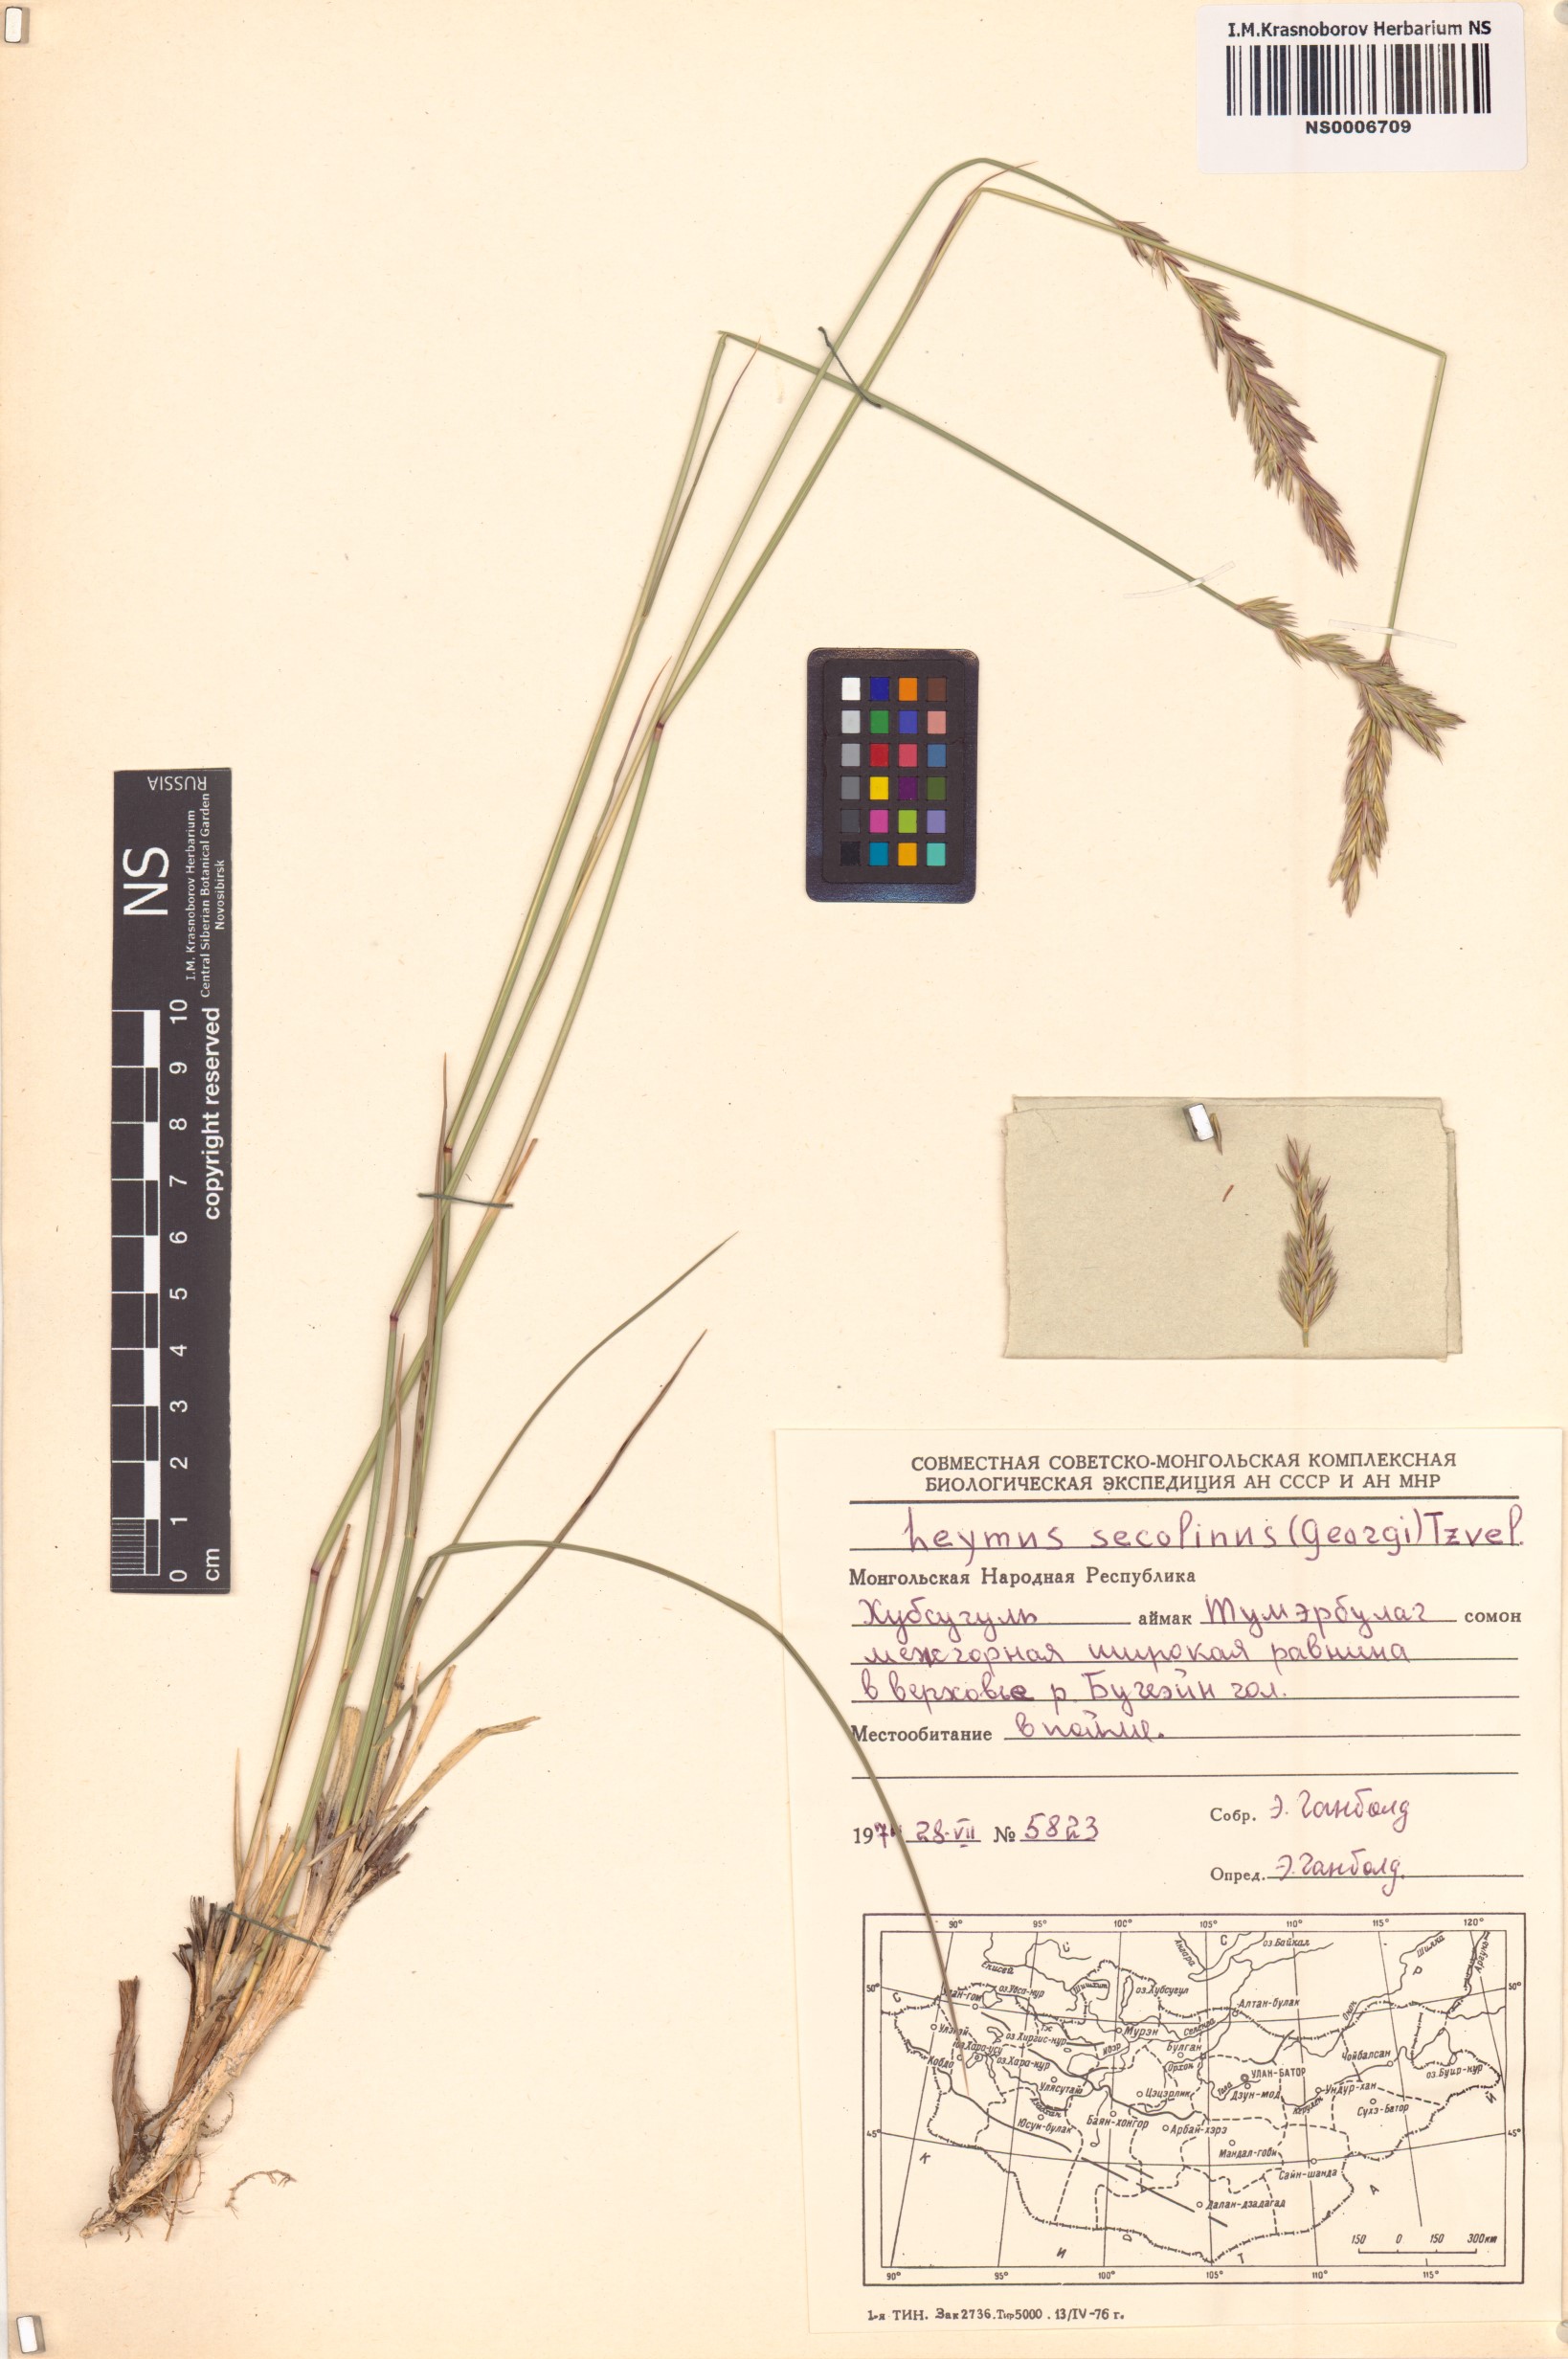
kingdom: Plantae
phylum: Tracheophyta
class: Liliopsida
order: Poales
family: Poaceae
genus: Leymus
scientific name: Leymus secalinus
